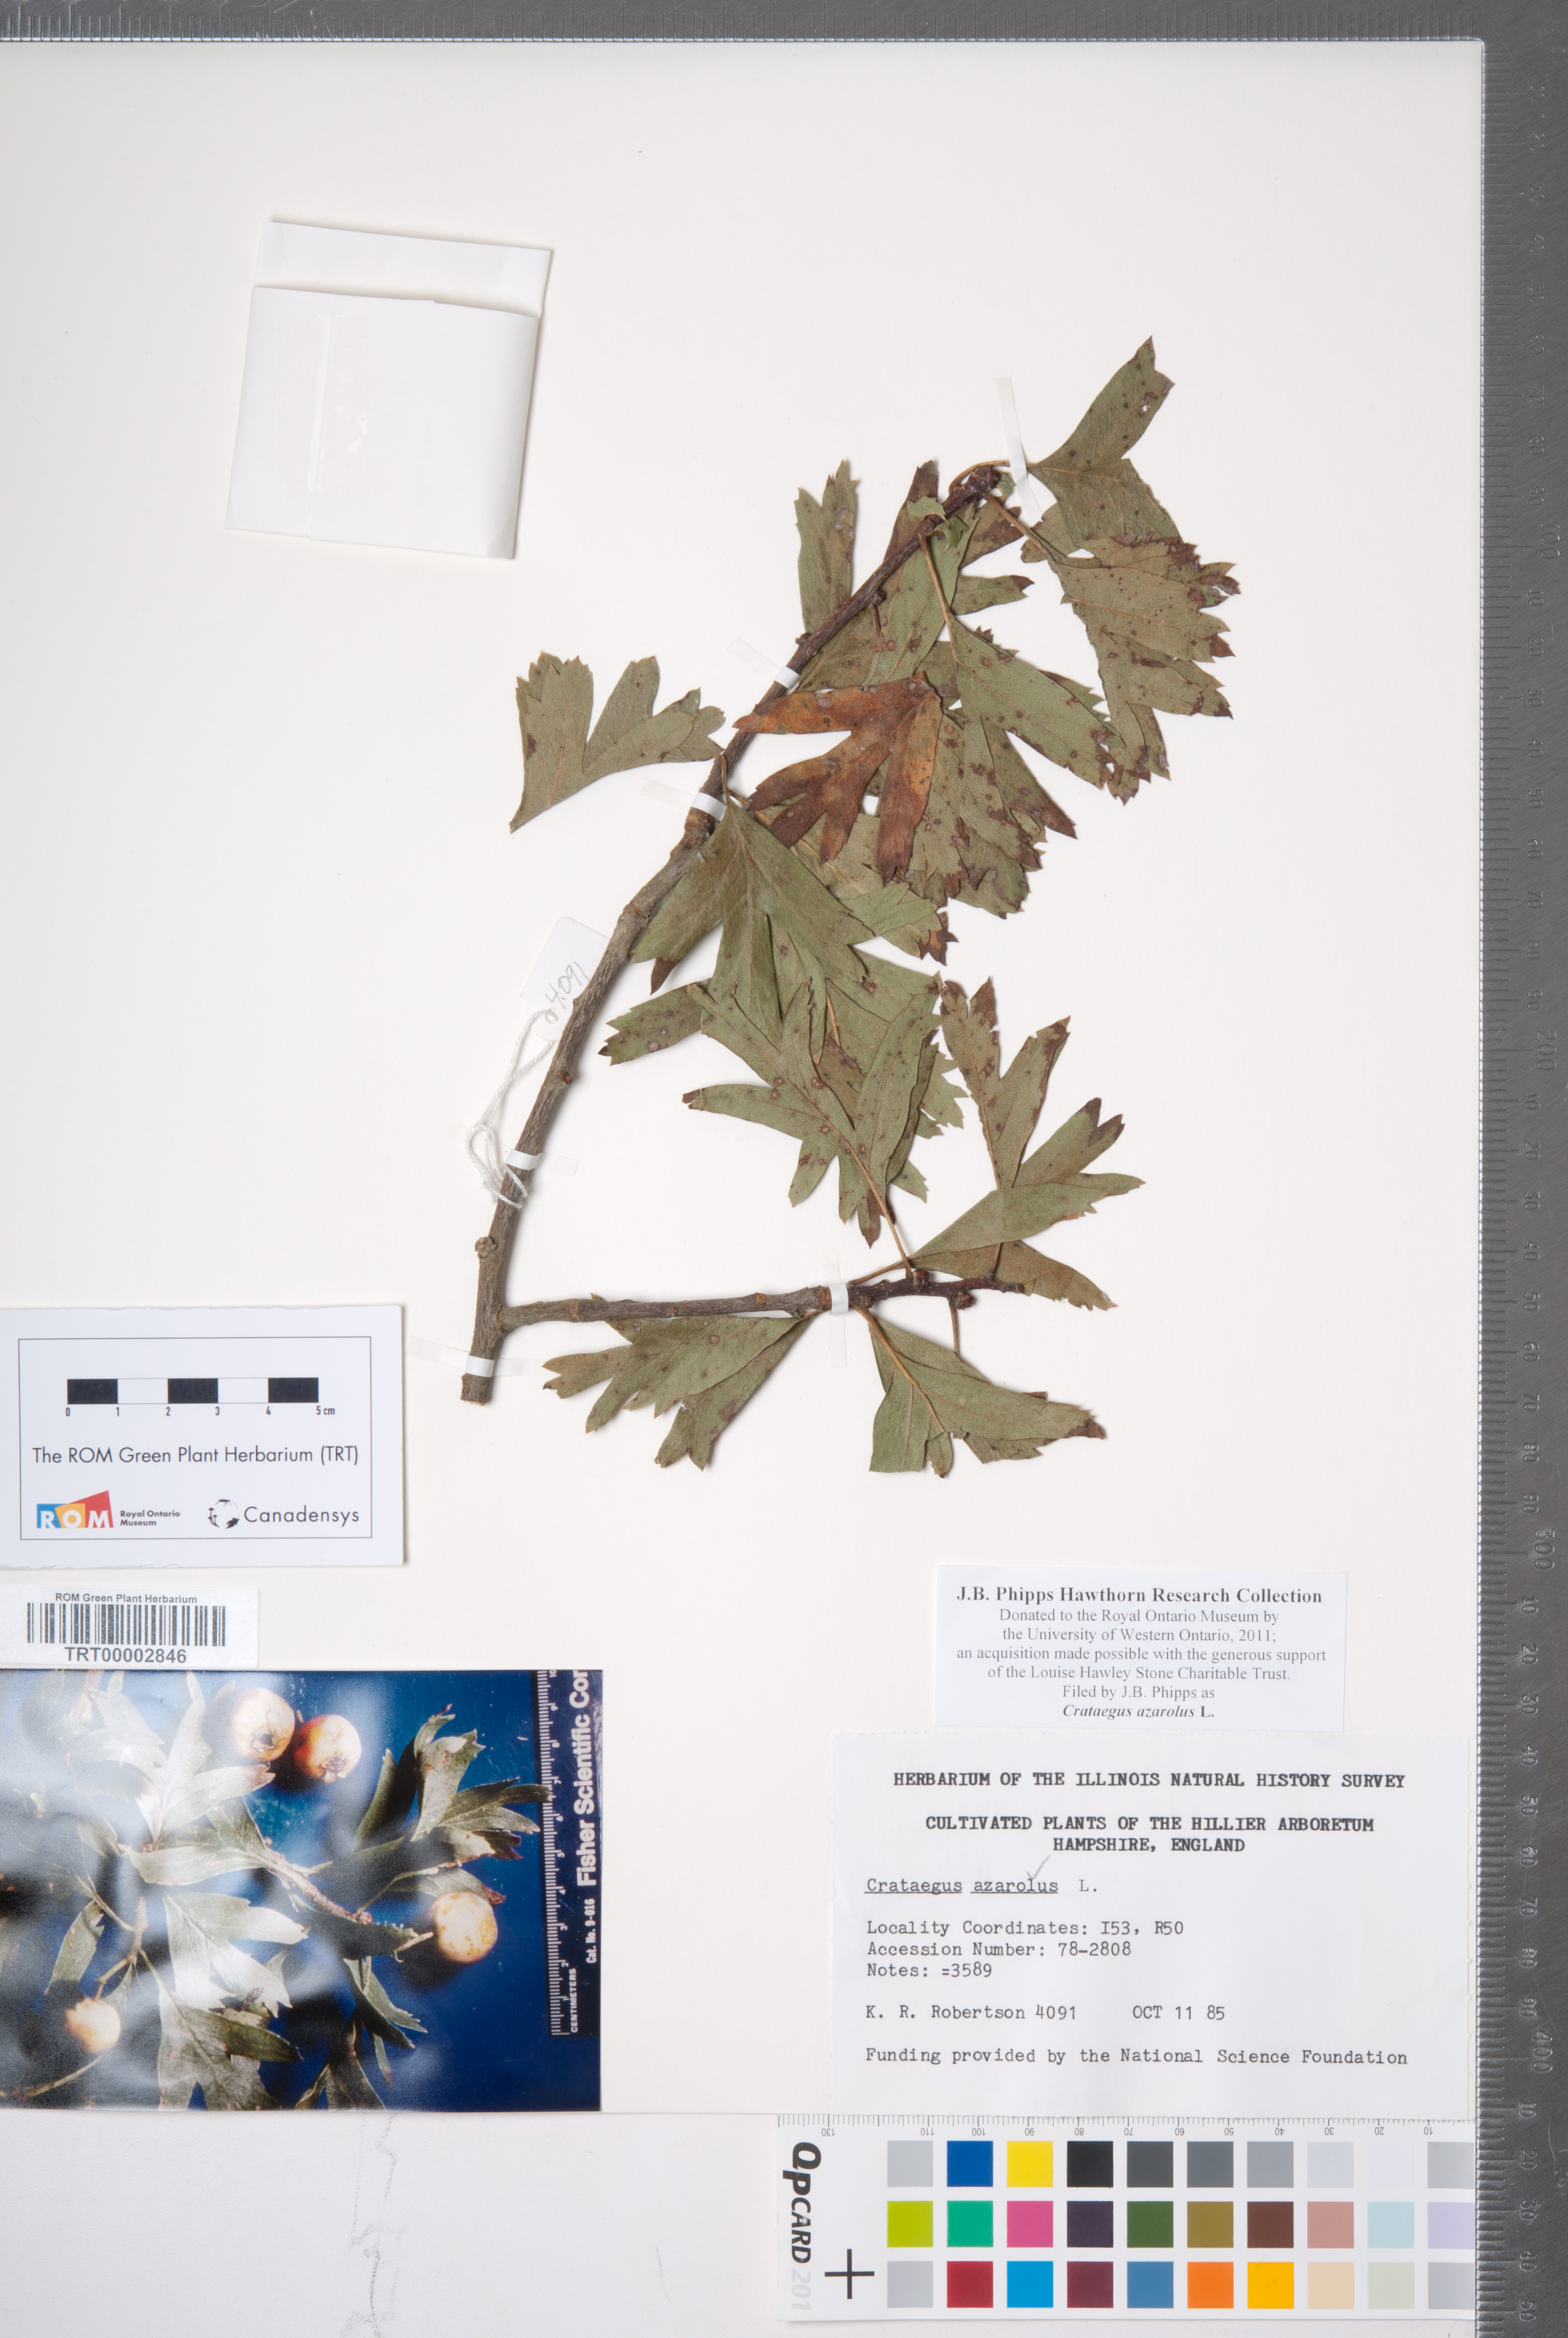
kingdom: Plantae
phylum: Tracheophyta
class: Magnoliopsida
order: Rosales
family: Rosaceae
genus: Crataegus
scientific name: Crataegus azarolus
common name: Azarole
